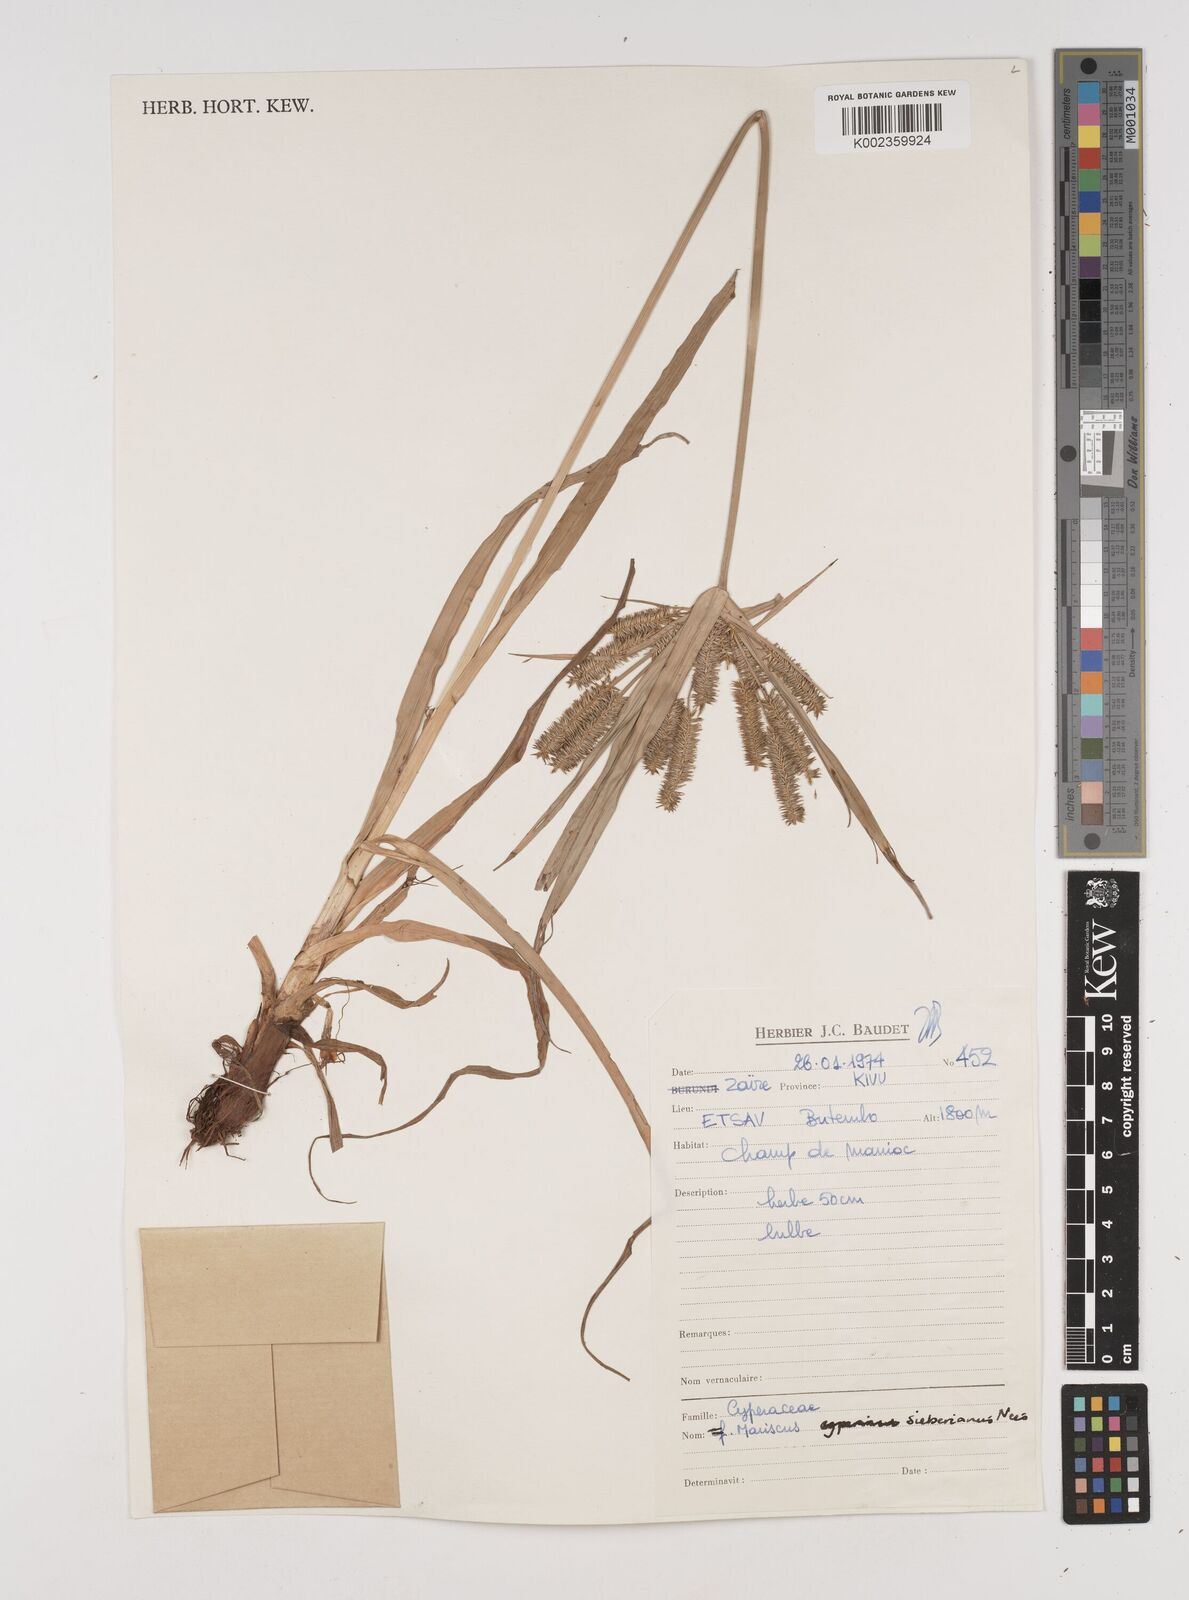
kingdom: Plantae
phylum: Tracheophyta
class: Liliopsida
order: Poales
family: Cyperaceae
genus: Cyperus
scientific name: Cyperus cyperoides
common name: Pacific island flat sedge
